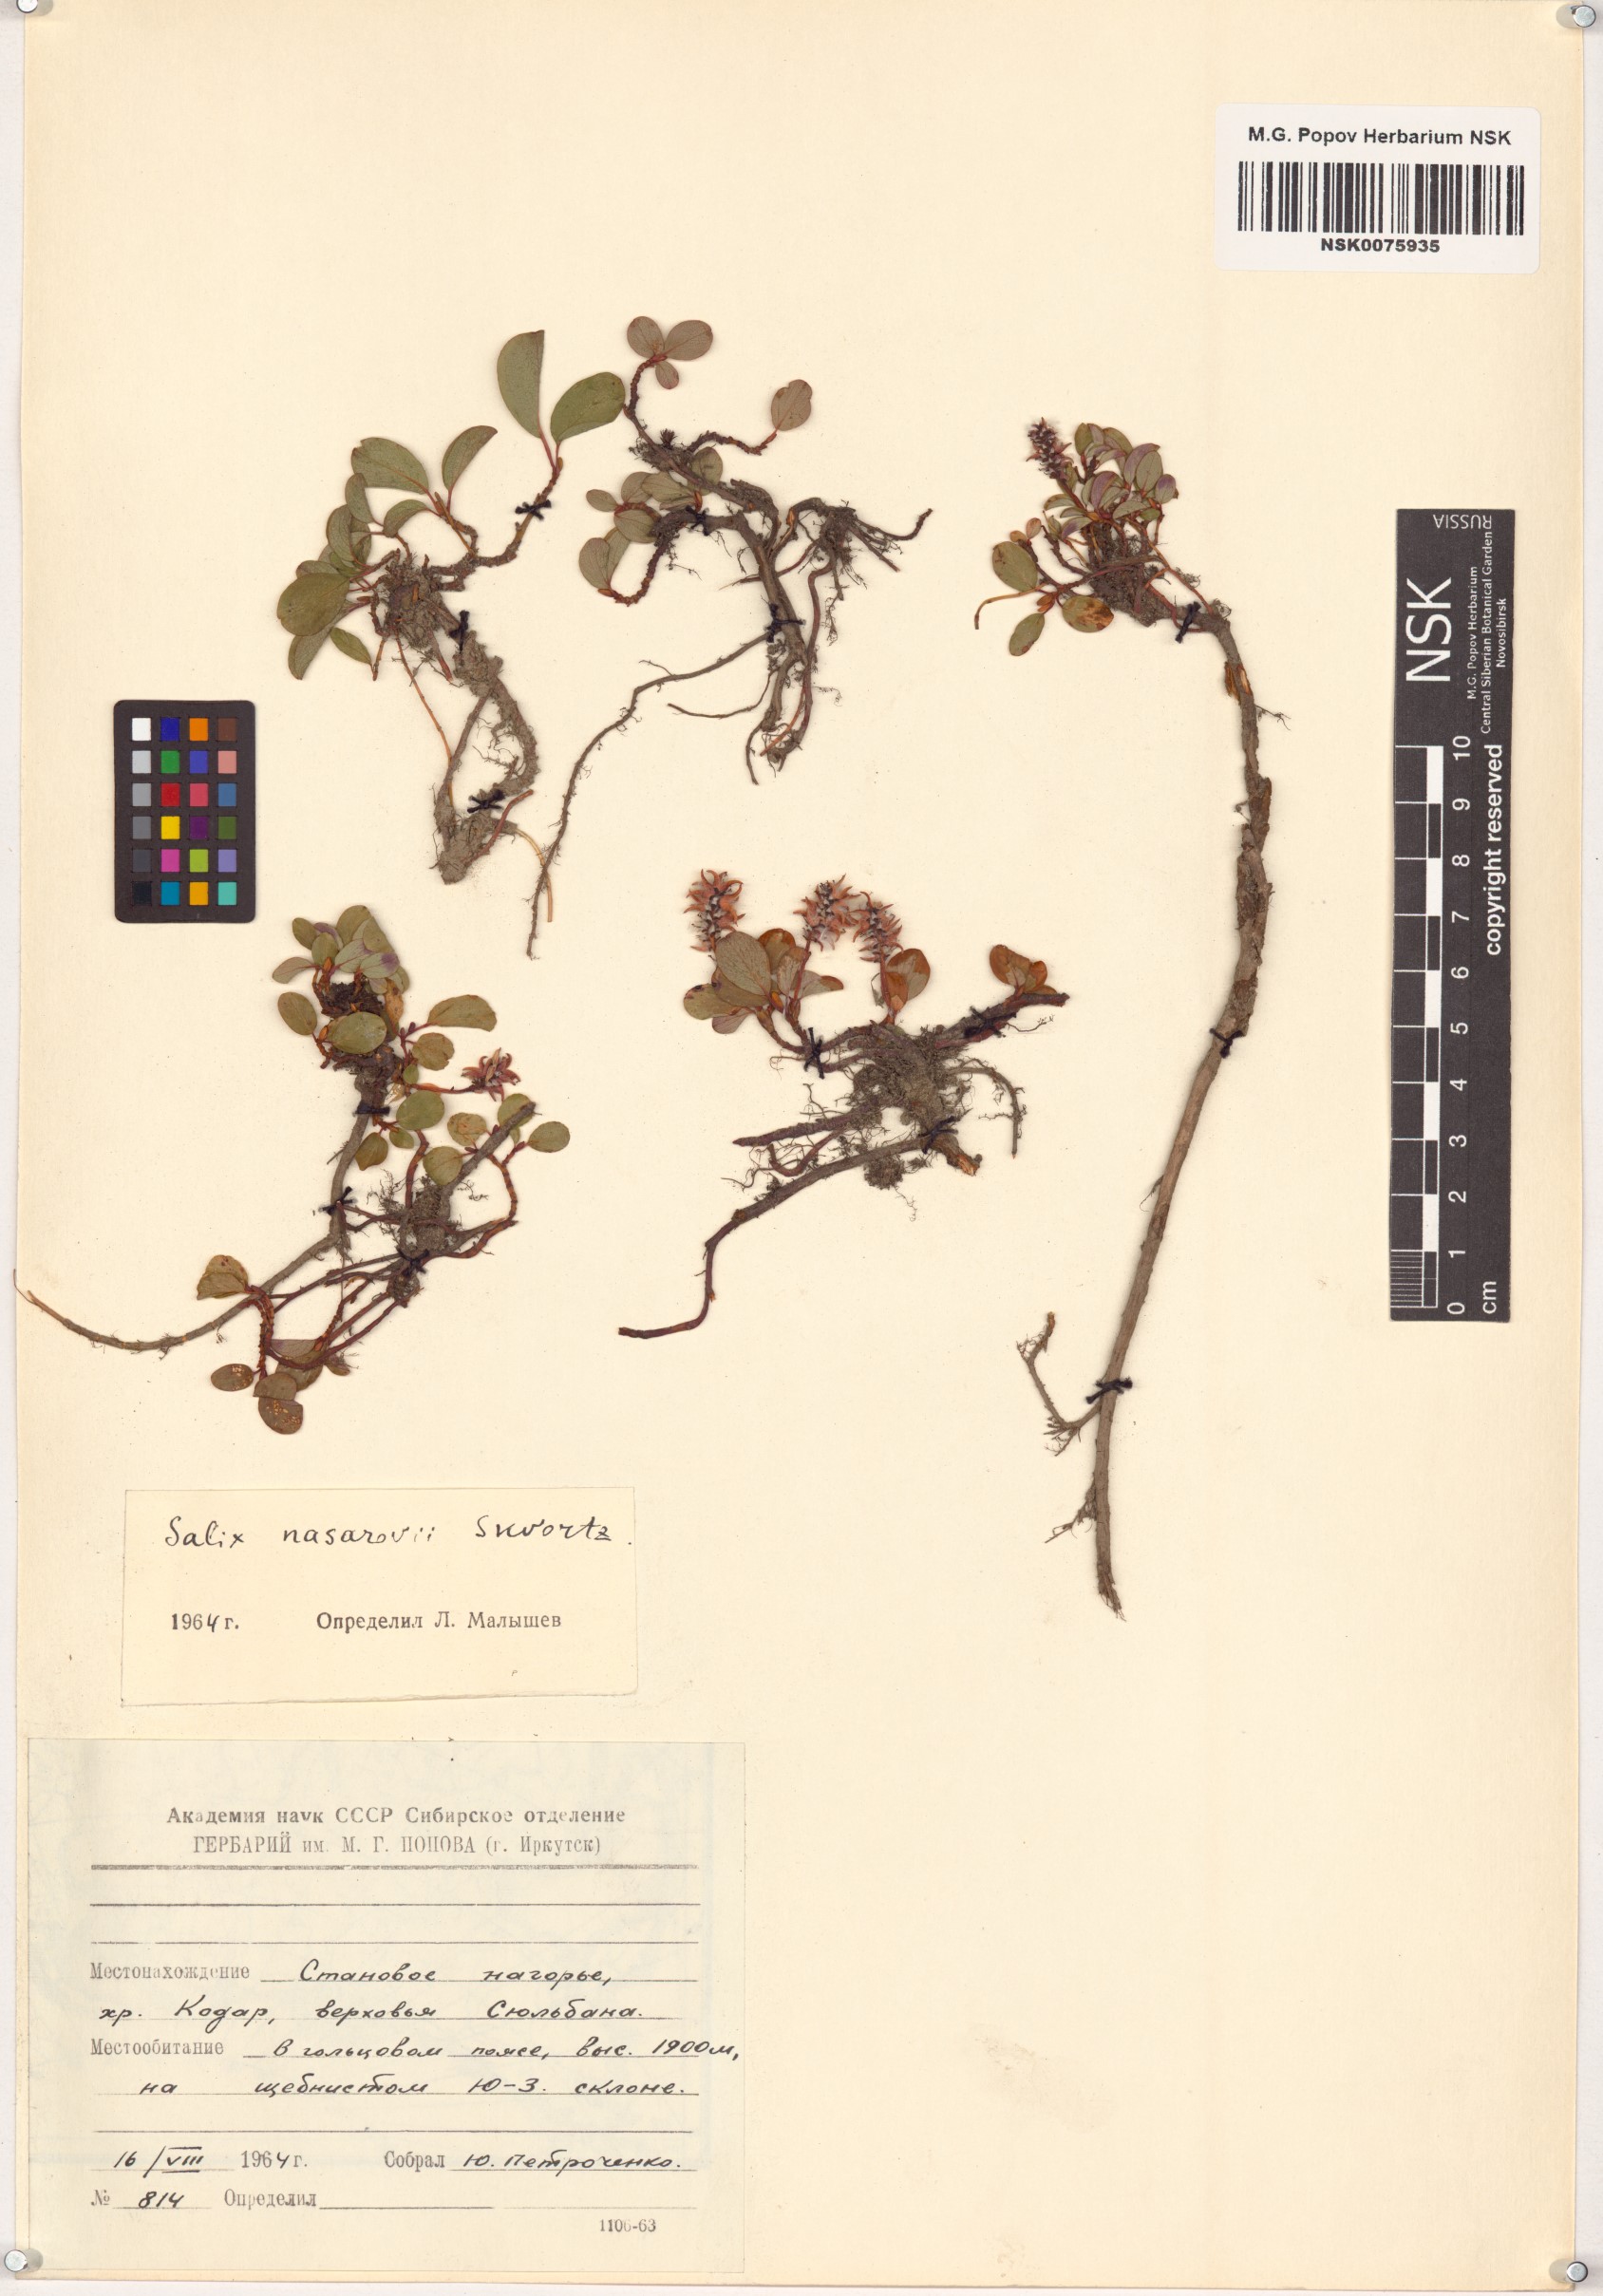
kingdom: Plantae
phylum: Tracheophyta
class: Magnoliopsida
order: Malpighiales
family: Salicaceae
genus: Salix
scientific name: Salix nasarovii
